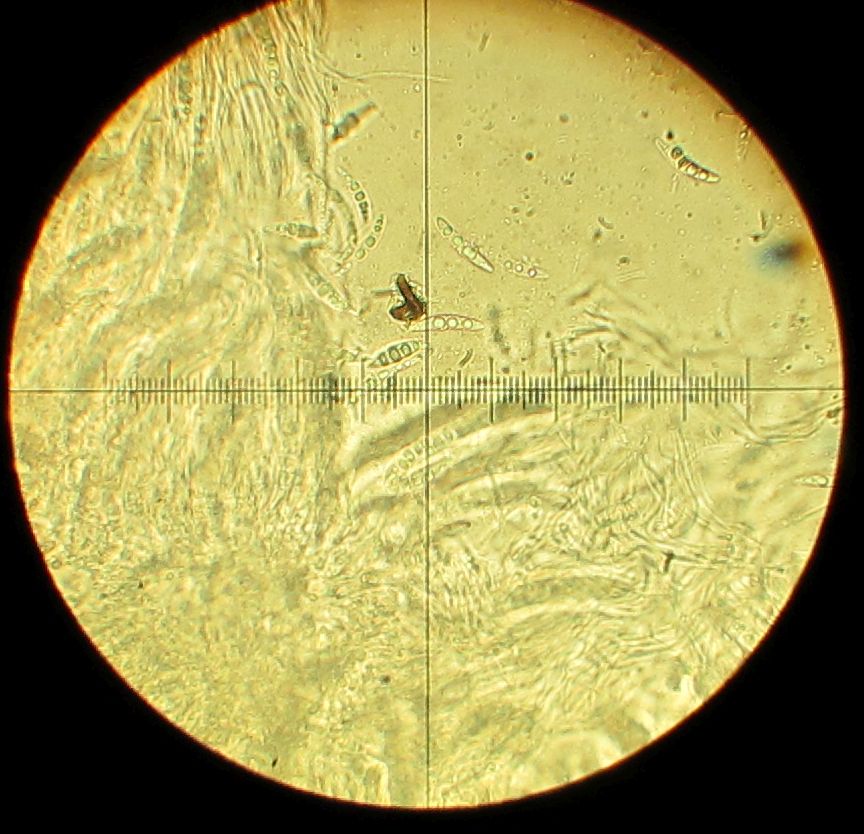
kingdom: Fungi
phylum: Ascomycota
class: Dothideomycetes
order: Pleosporales
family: Thyridariaceae
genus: Thyridaria
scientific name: Thyridaria macrostomoides
